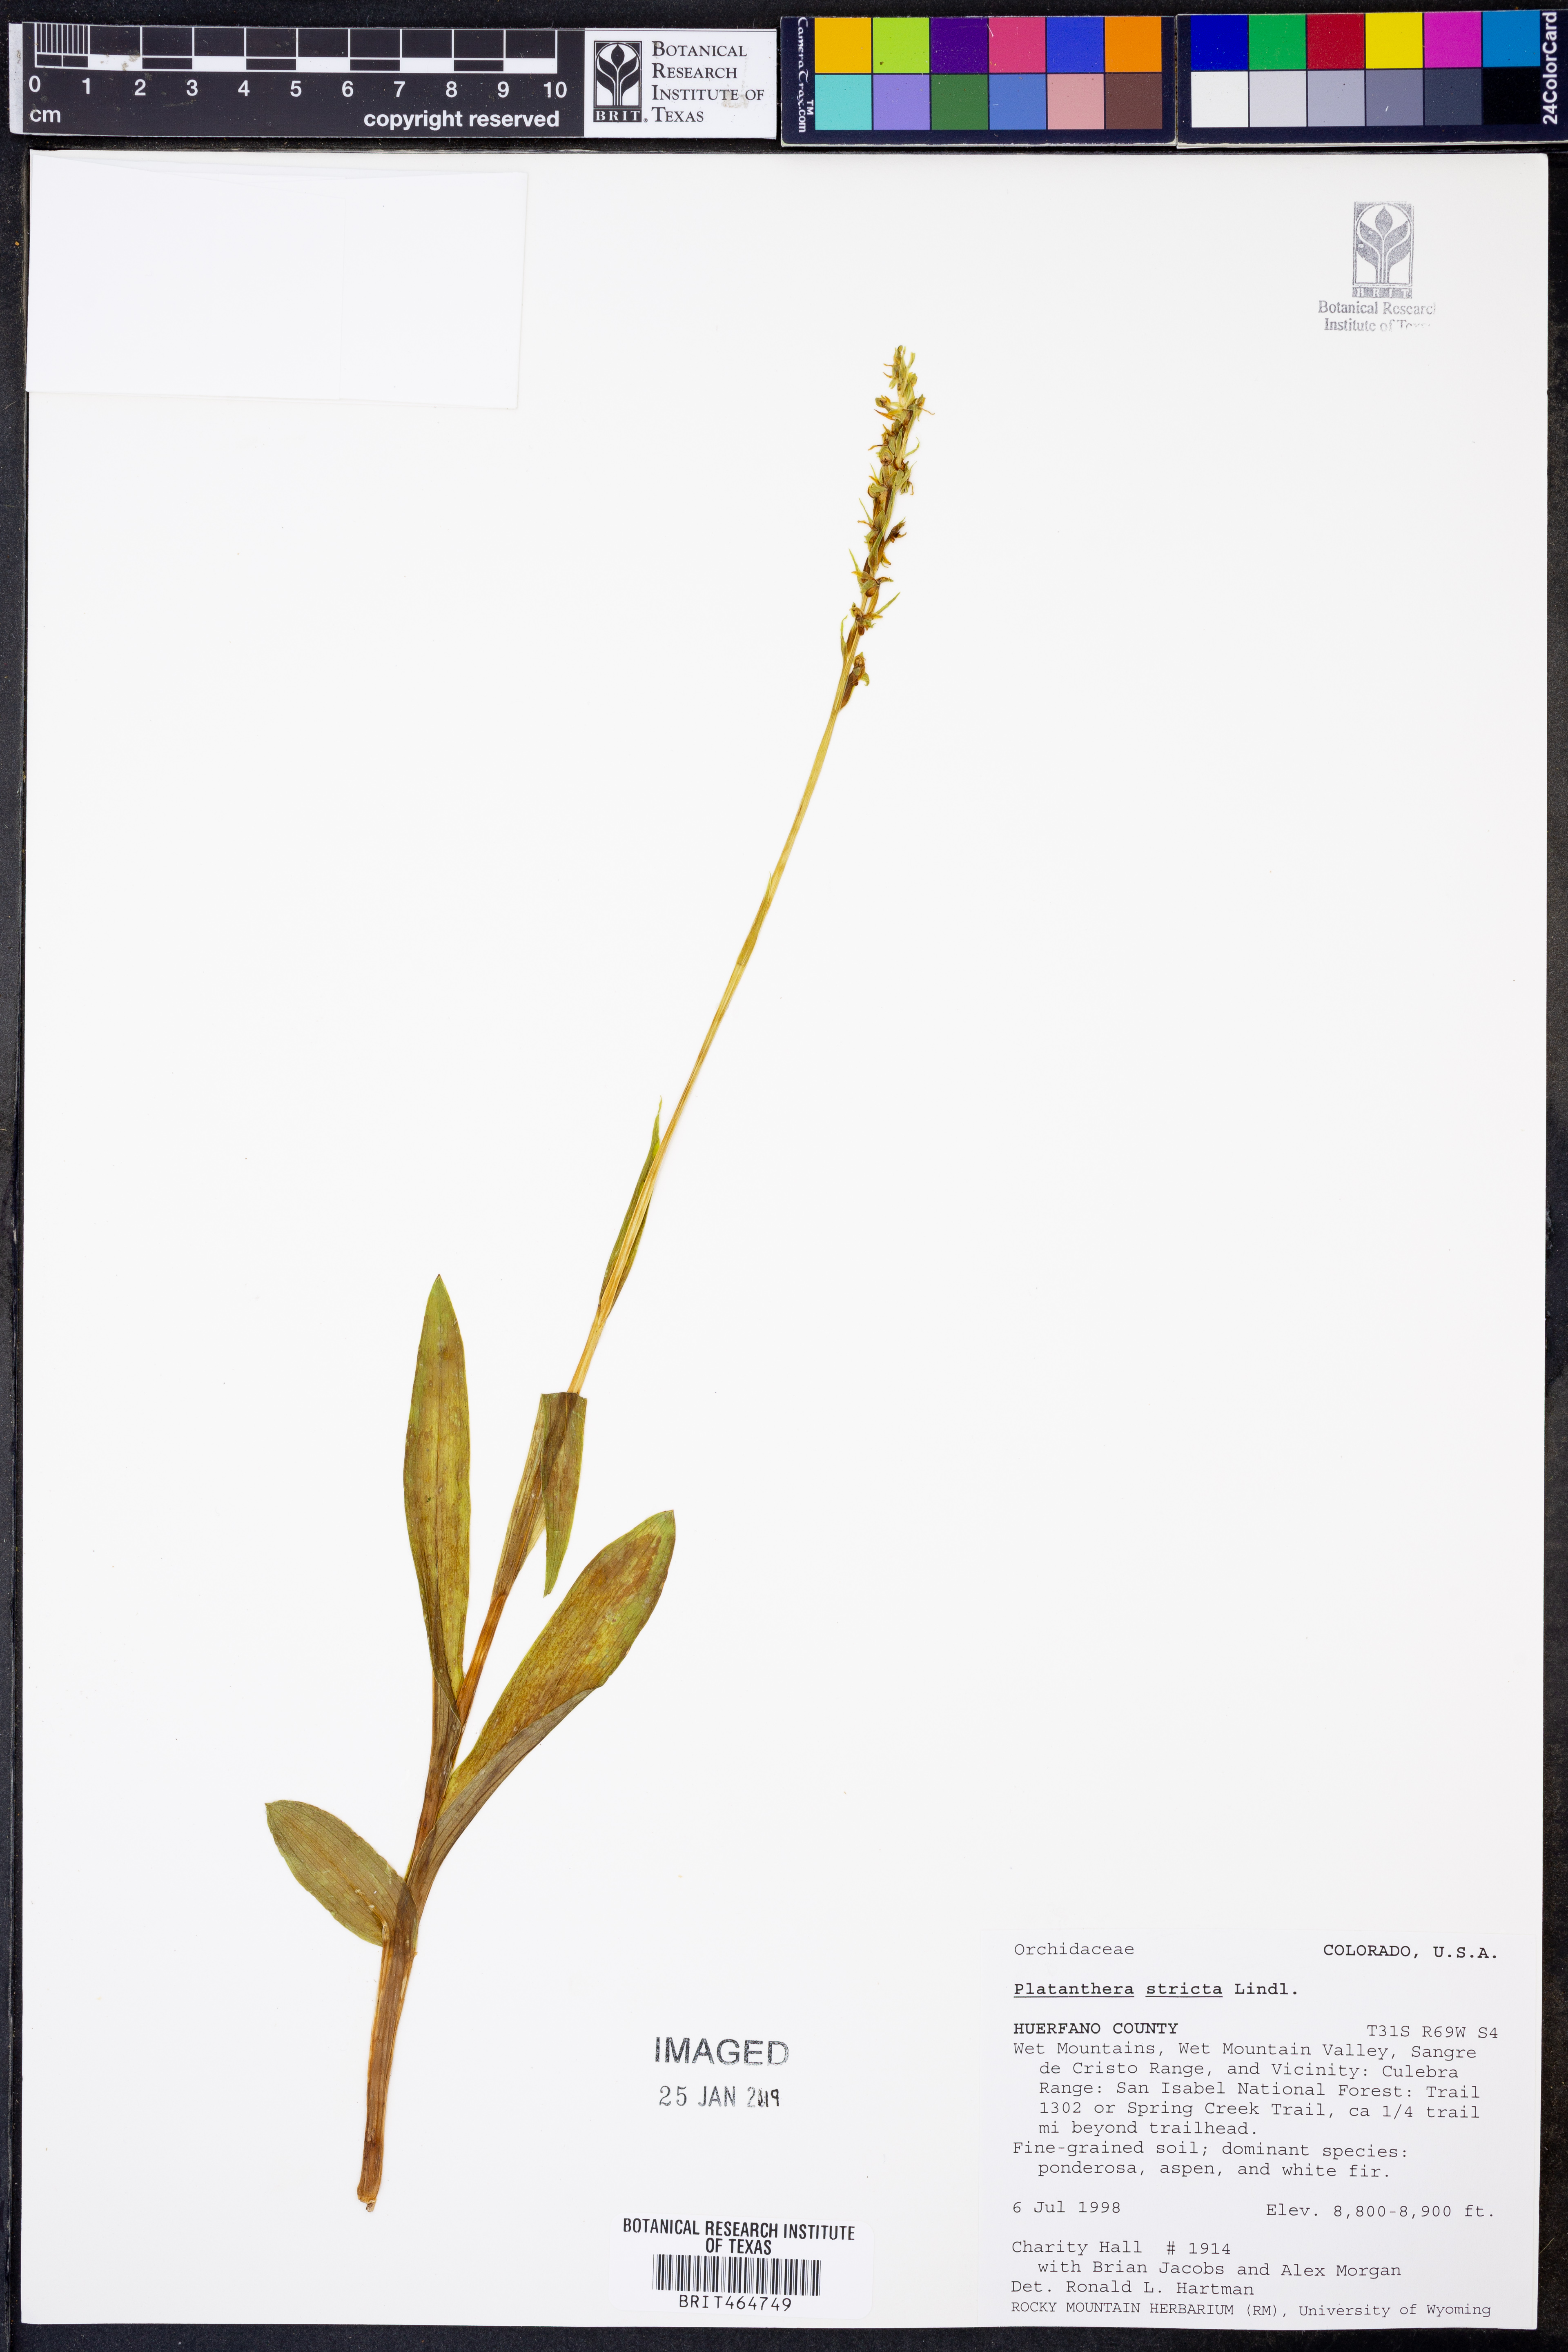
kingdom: Plantae
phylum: Tracheophyta
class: Liliopsida
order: Asparagales
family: Orchidaceae
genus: Platanthera
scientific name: Platanthera stricta
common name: Slender bog orchid
